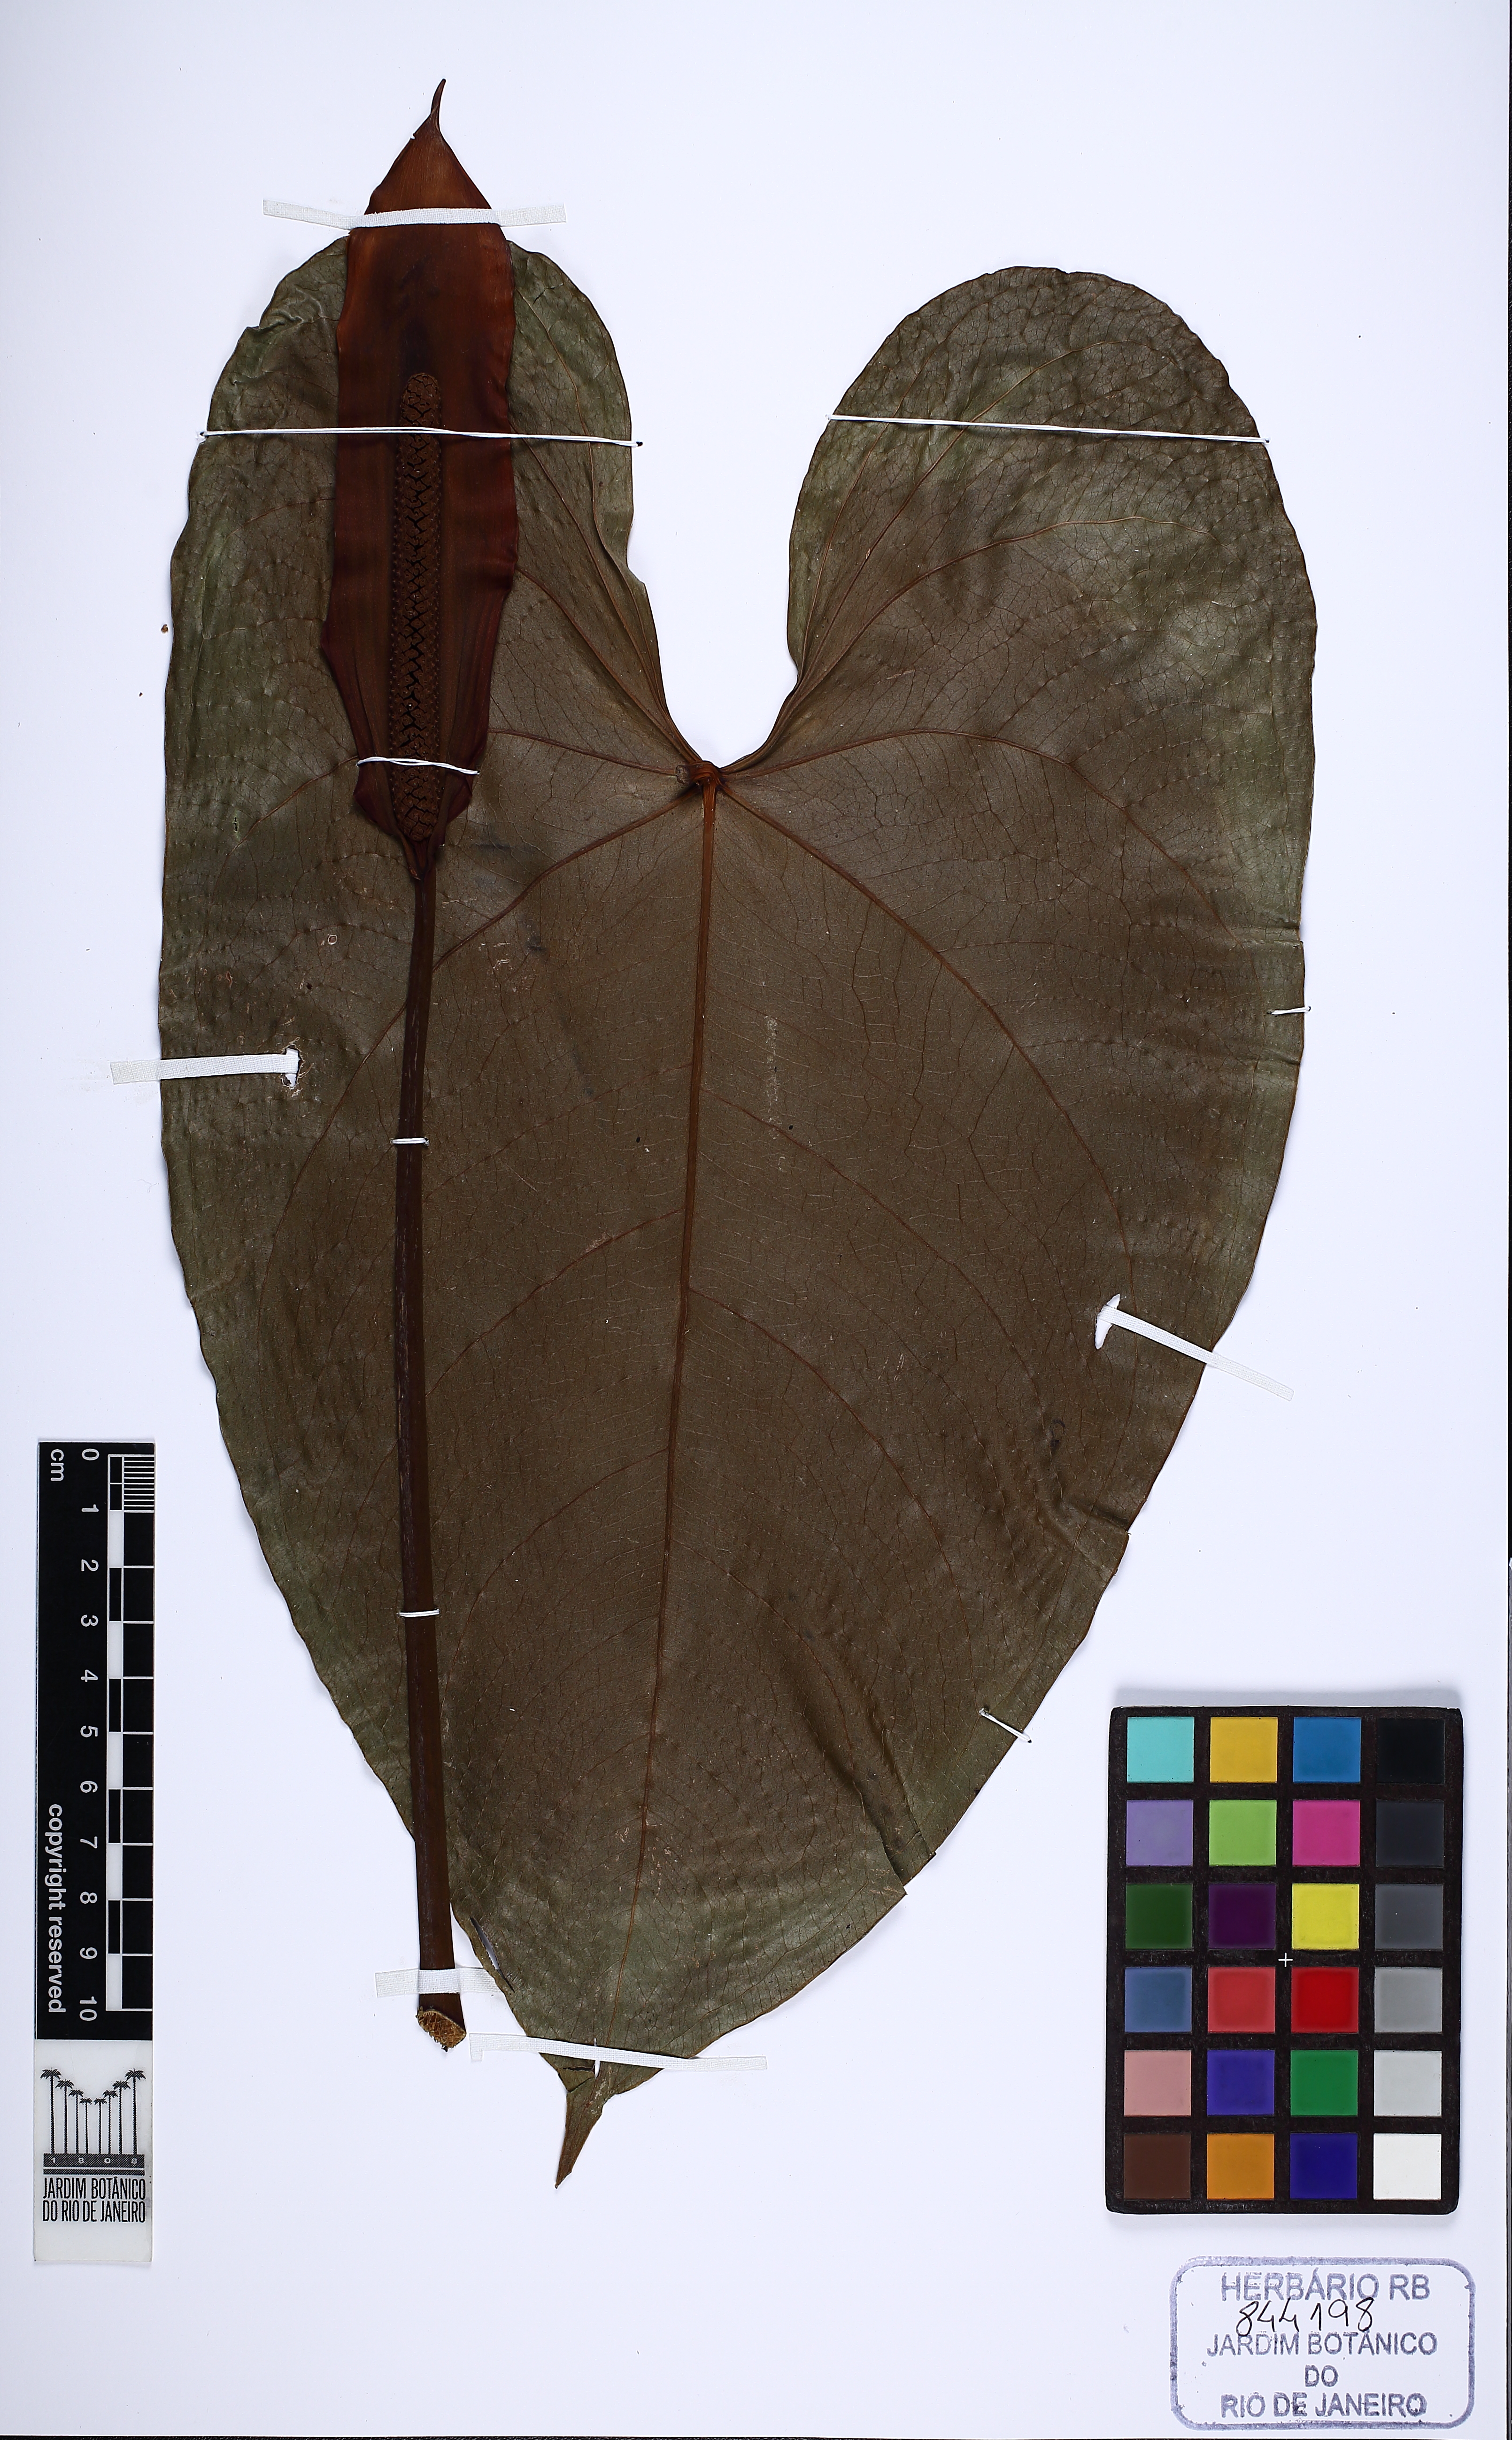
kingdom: Plantae
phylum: Tracheophyta
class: Liliopsida
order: Alismatales
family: Araceae
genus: Anthurium
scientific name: Anthurium nymphaeifolium
